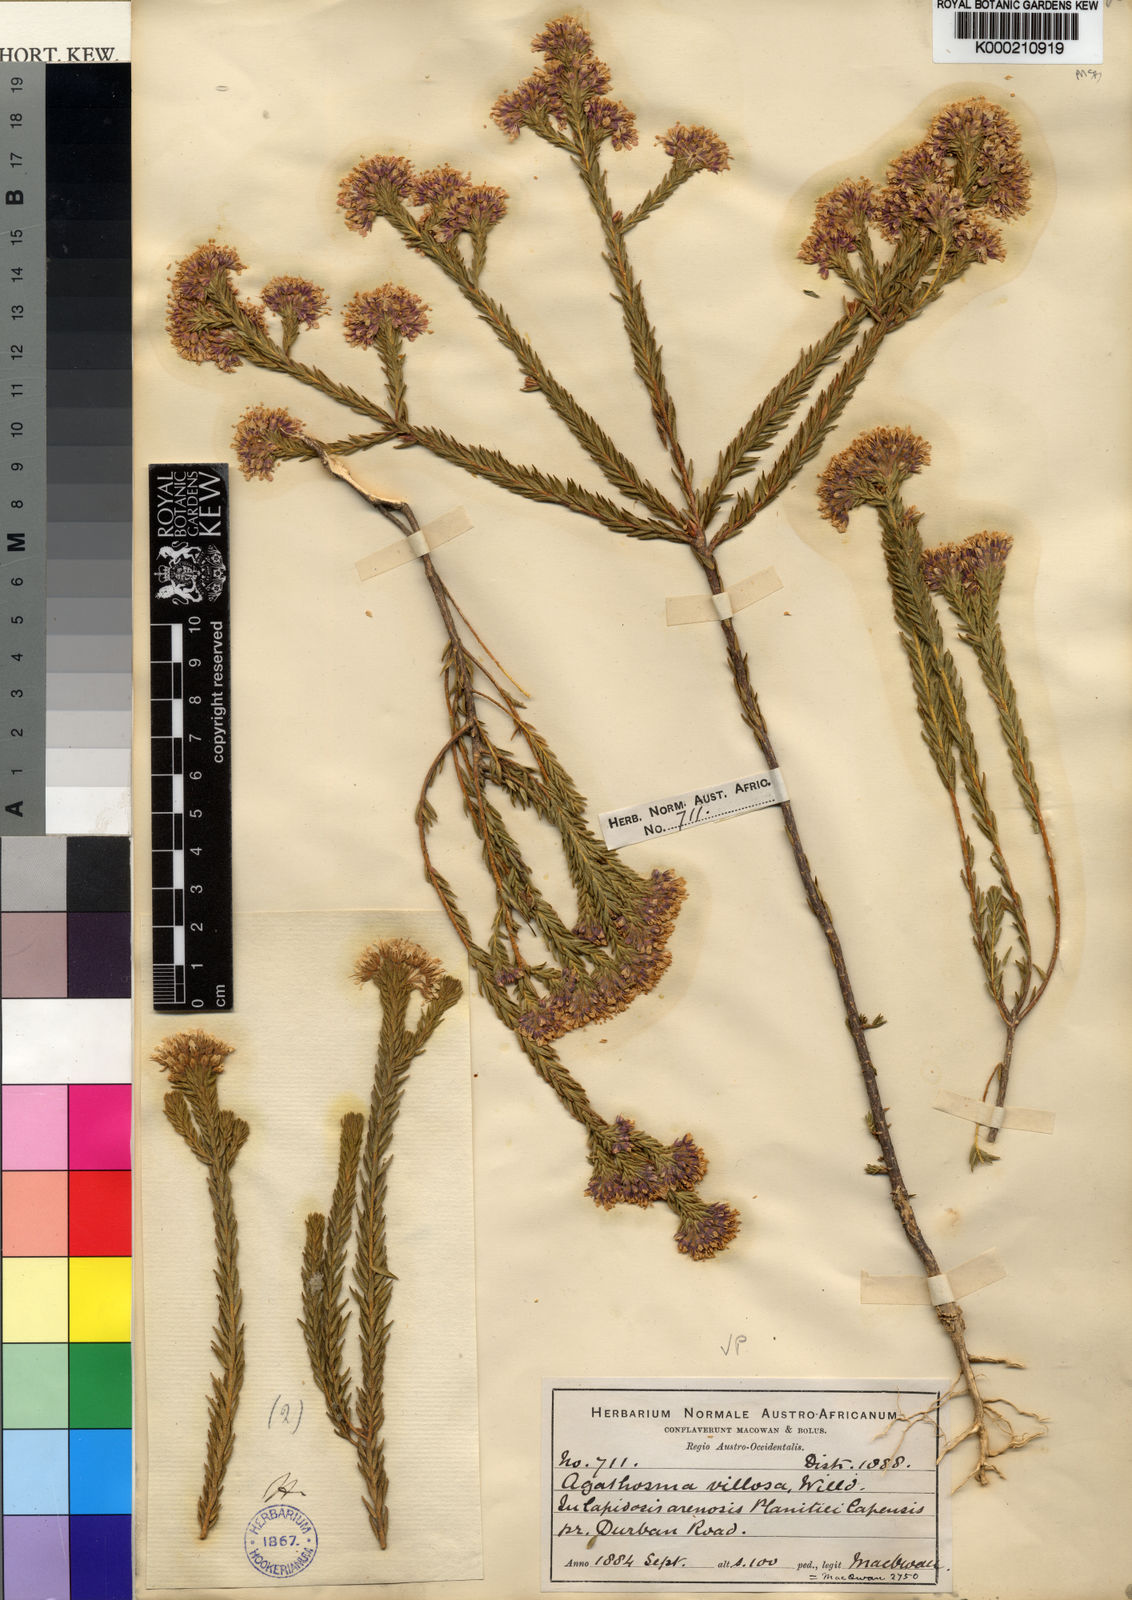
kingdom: Plantae
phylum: Tracheophyta
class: Magnoliopsida
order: Sapindales
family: Rutaceae
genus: Agathosma
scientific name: Agathosma corymbosa
